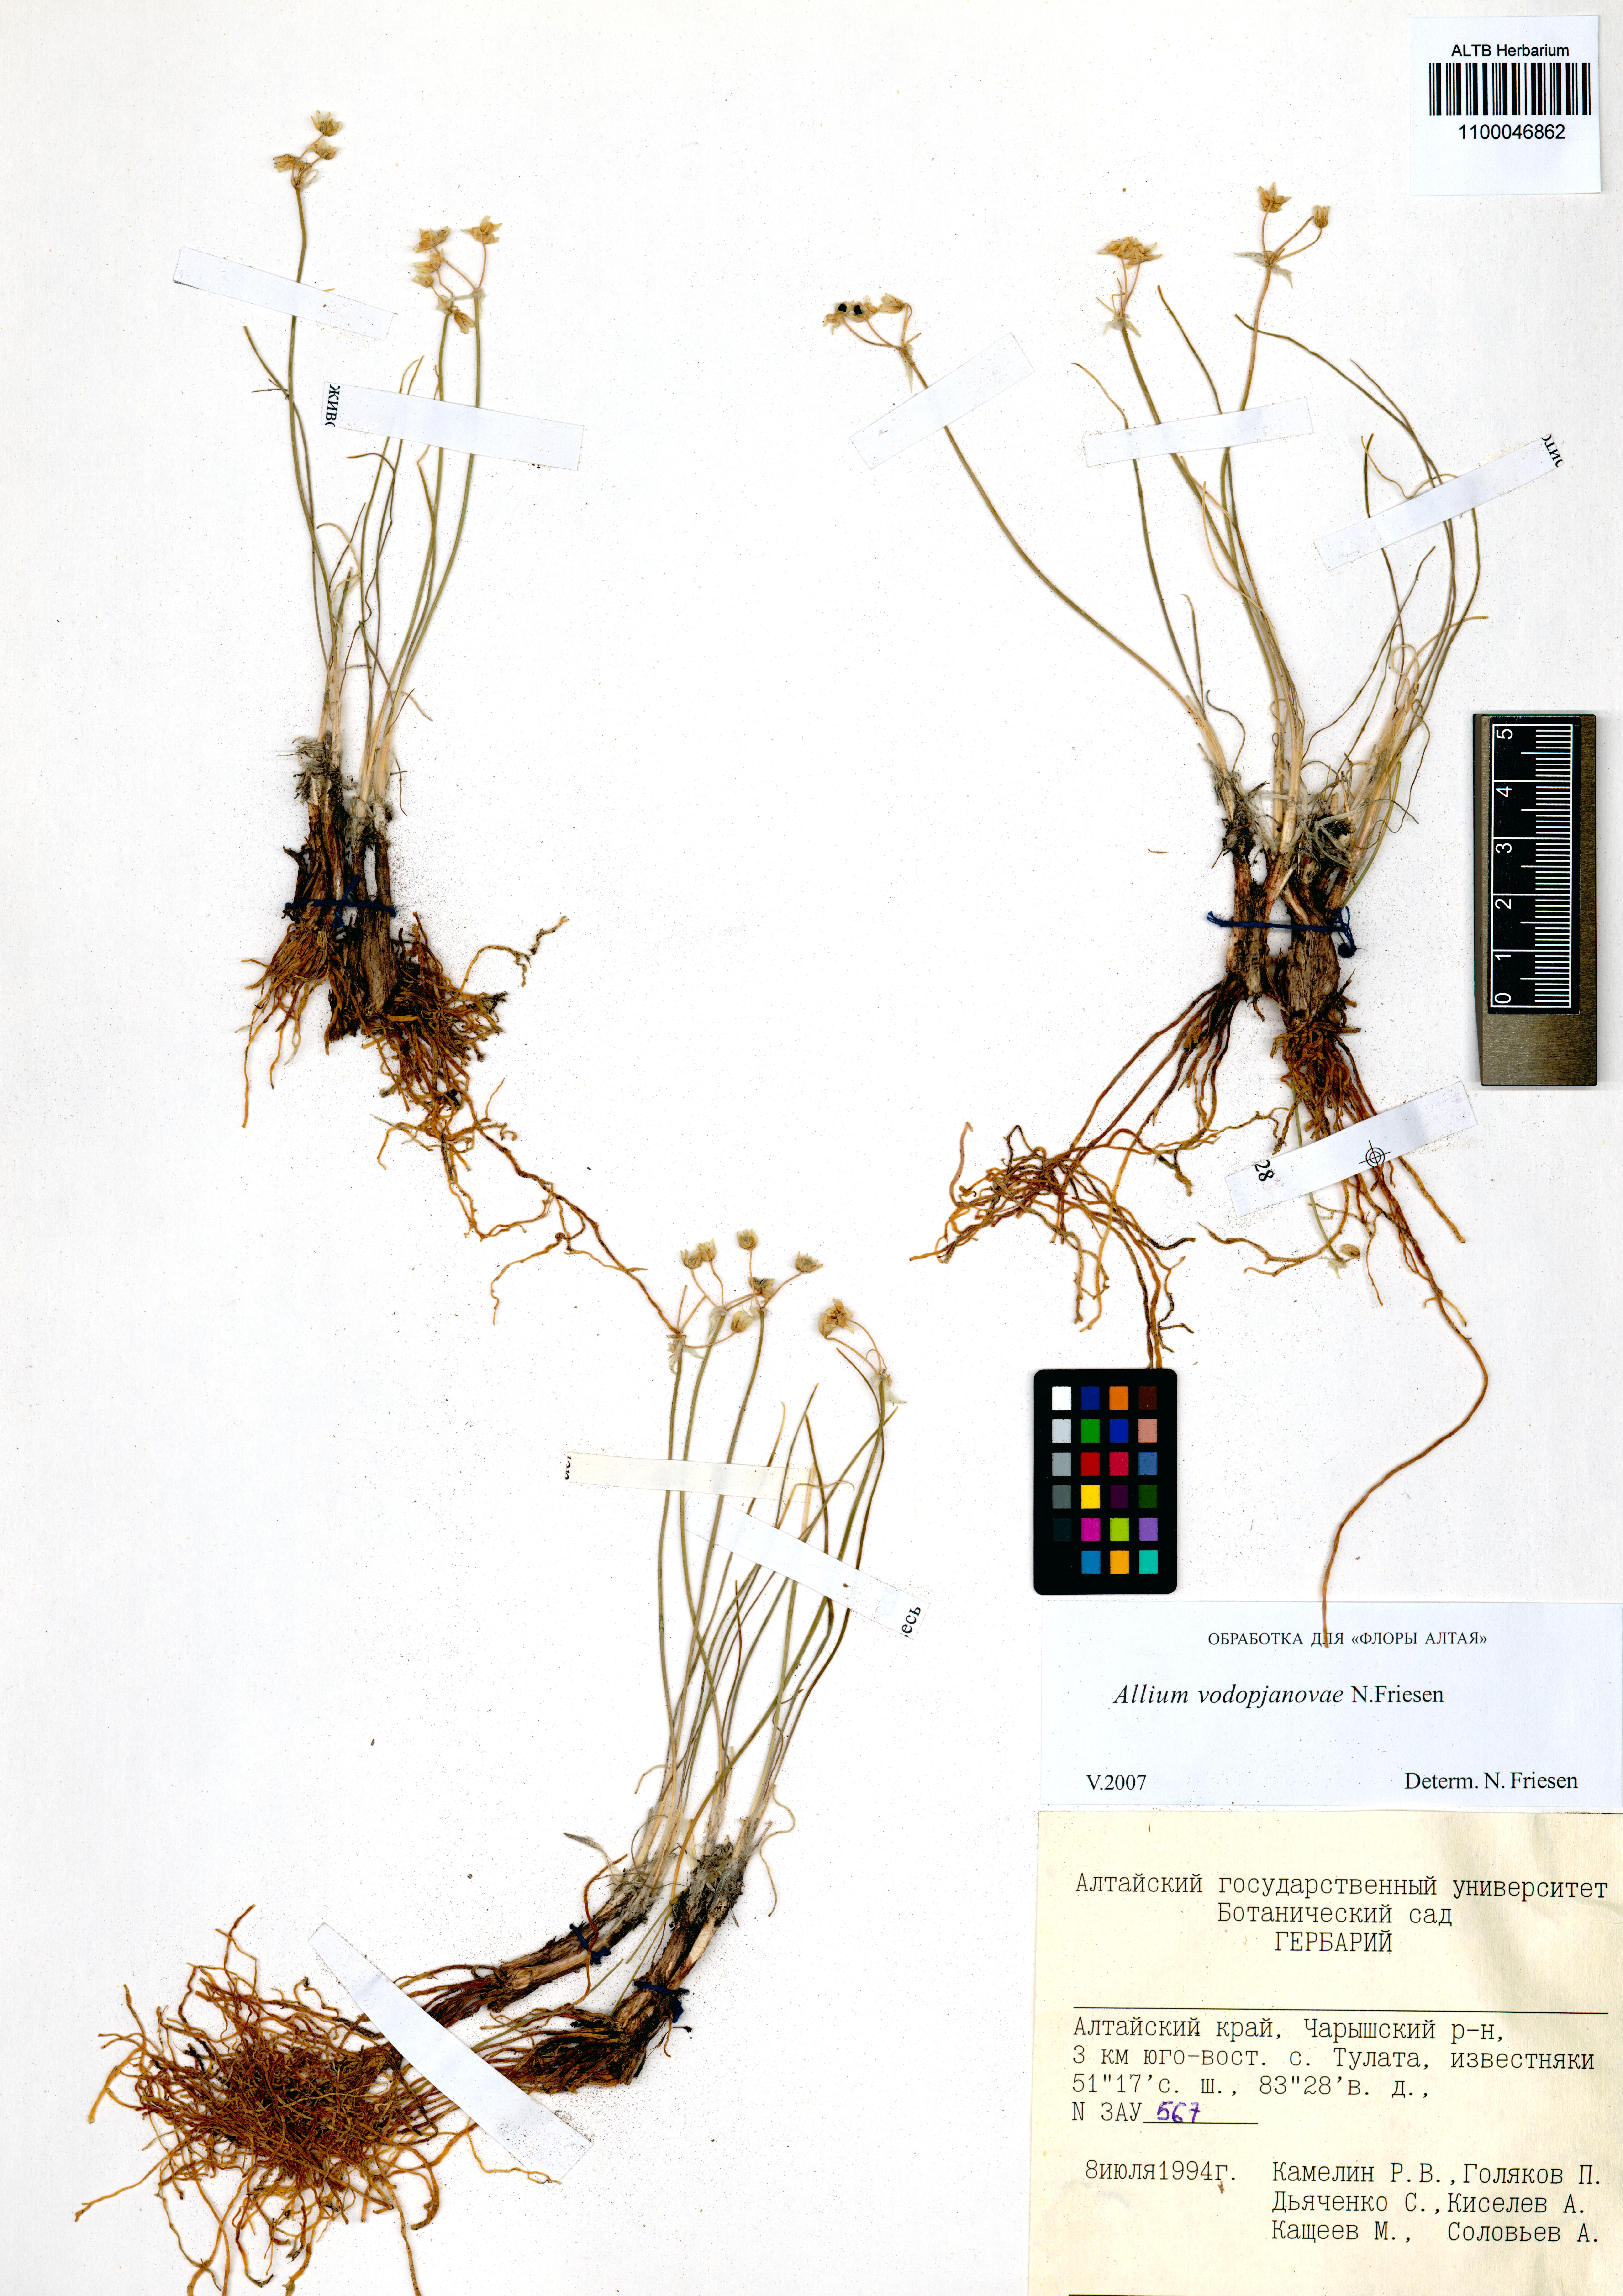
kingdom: Plantae
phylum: Tracheophyta
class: Liliopsida
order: Asparagales
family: Amaryllidaceae
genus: Allium
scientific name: Allium vodopjanovae
